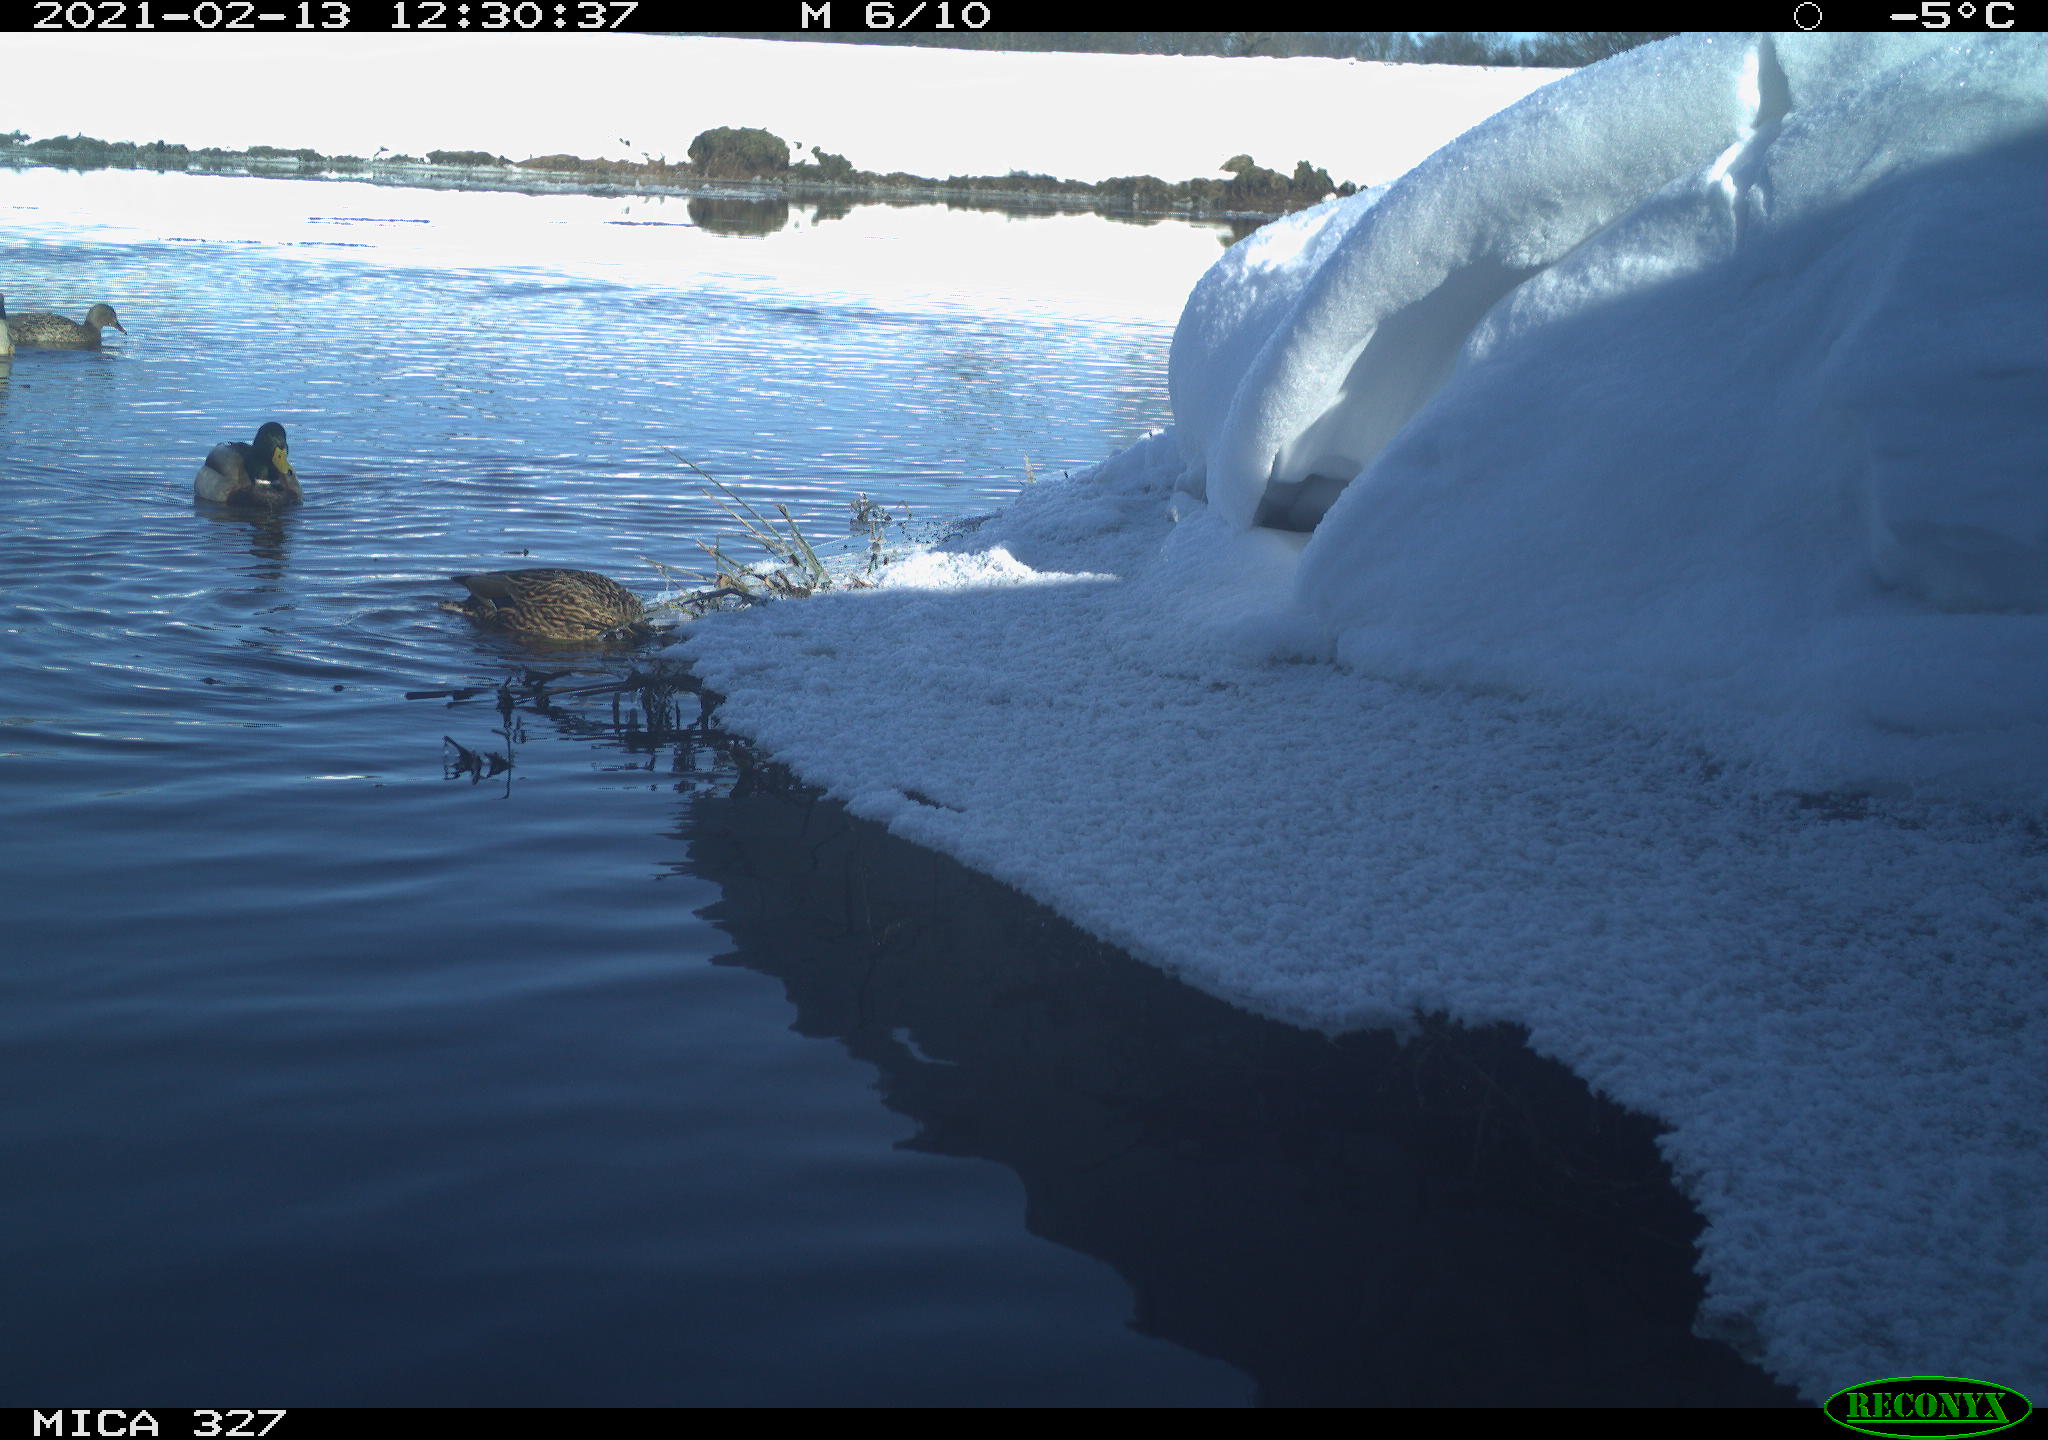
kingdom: Animalia
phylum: Chordata
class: Aves
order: Anseriformes
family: Anatidae
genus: Anas
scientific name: Anas platyrhynchos
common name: Mallard
